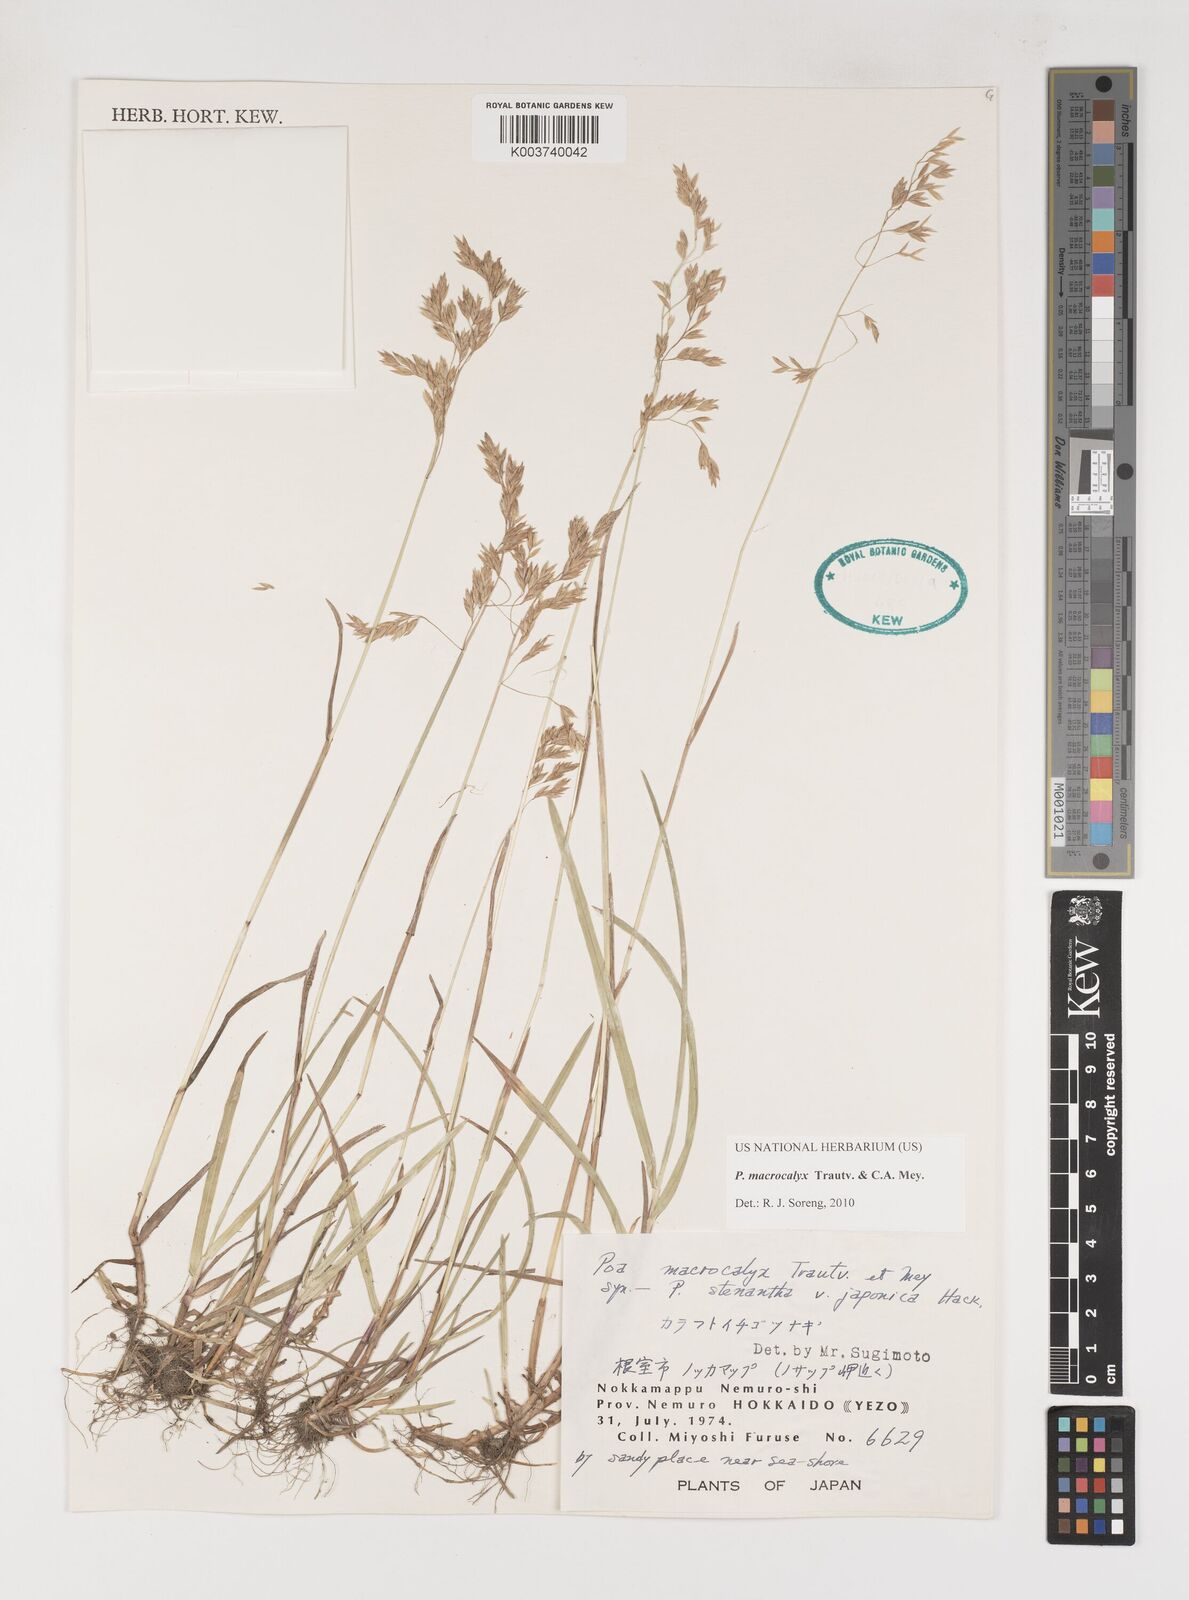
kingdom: Plantae
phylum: Tracheophyta
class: Liliopsida
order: Poales
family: Poaceae
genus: Poa
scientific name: Poa macrocalyx
